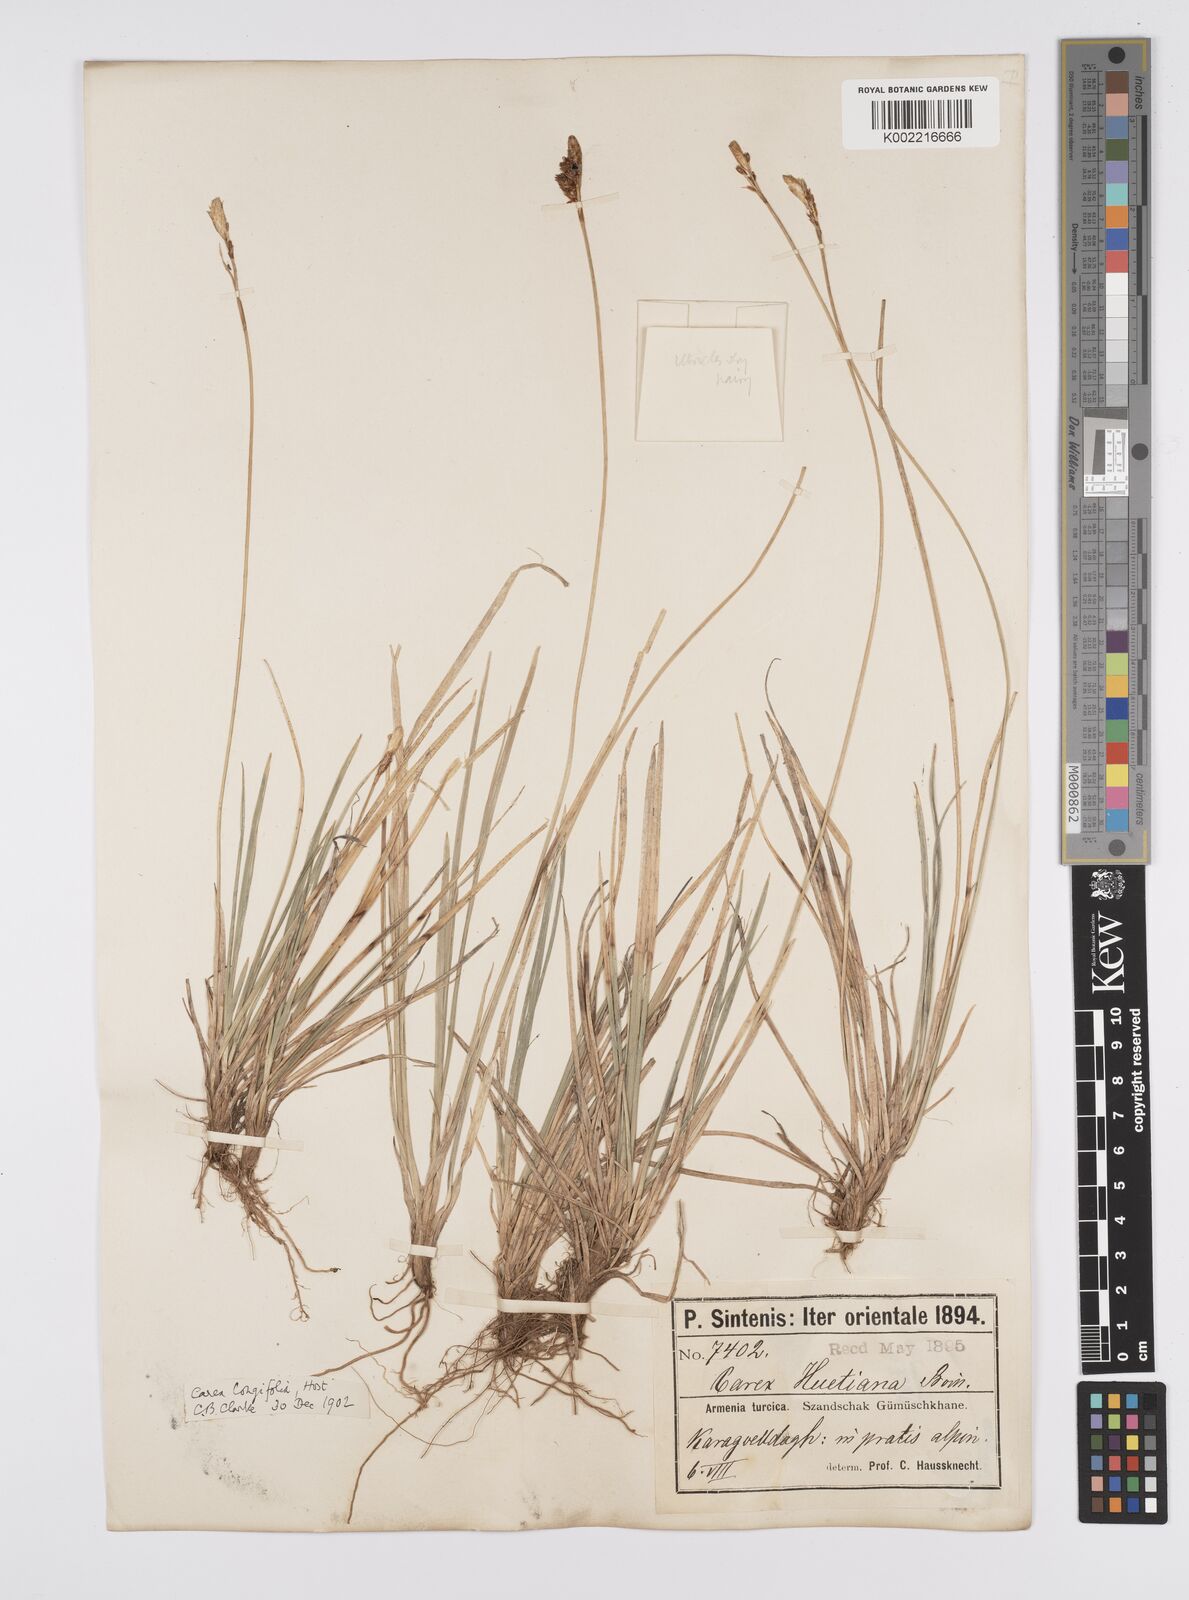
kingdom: Plantae
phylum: Tracheophyta
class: Liliopsida
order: Poales
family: Cyperaceae
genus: Carex
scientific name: Carex umbrosa
